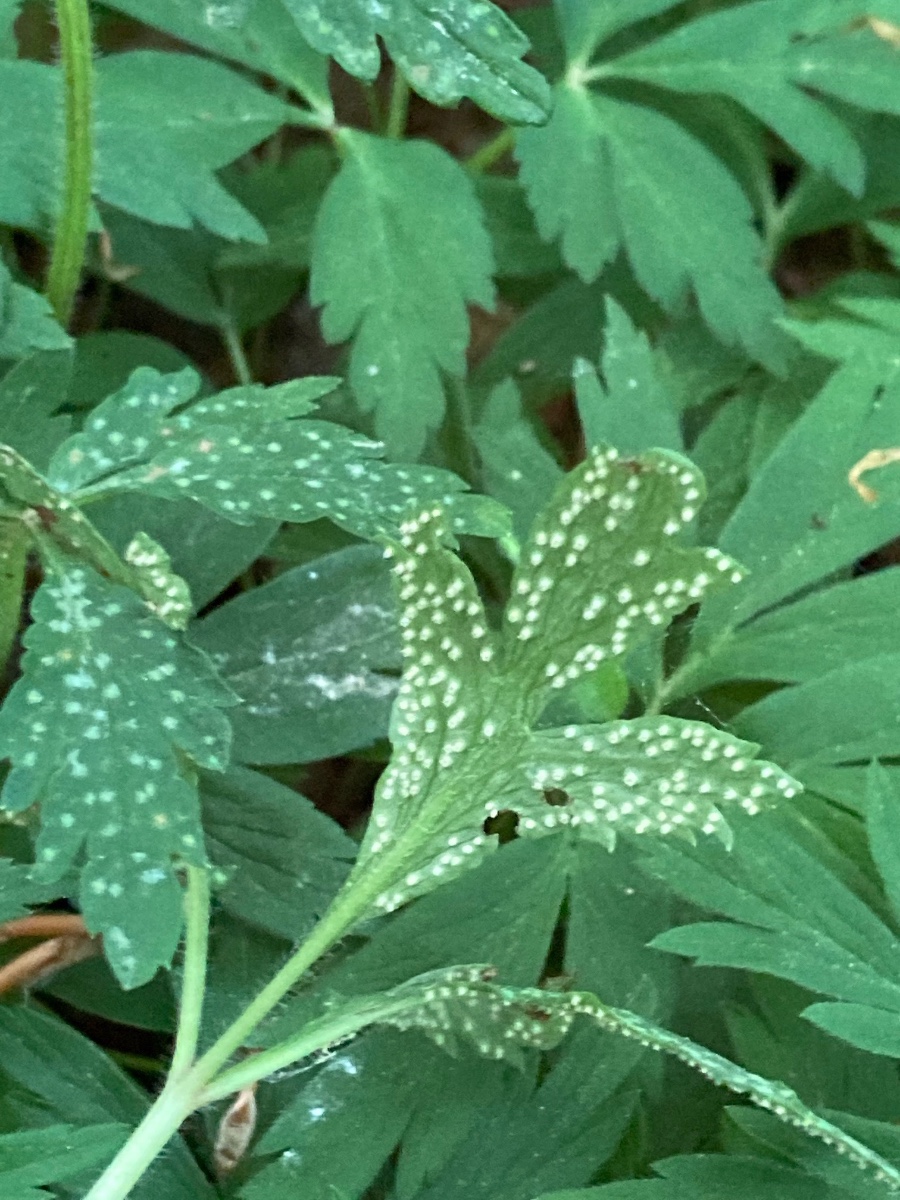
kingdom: Fungi
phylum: Basidiomycota
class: Pucciniomycetes
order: Pucciniales
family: Ochropsoraceae
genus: Ochropsora
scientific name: Ochropsora ariae
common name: anemone-okkerpletrust
